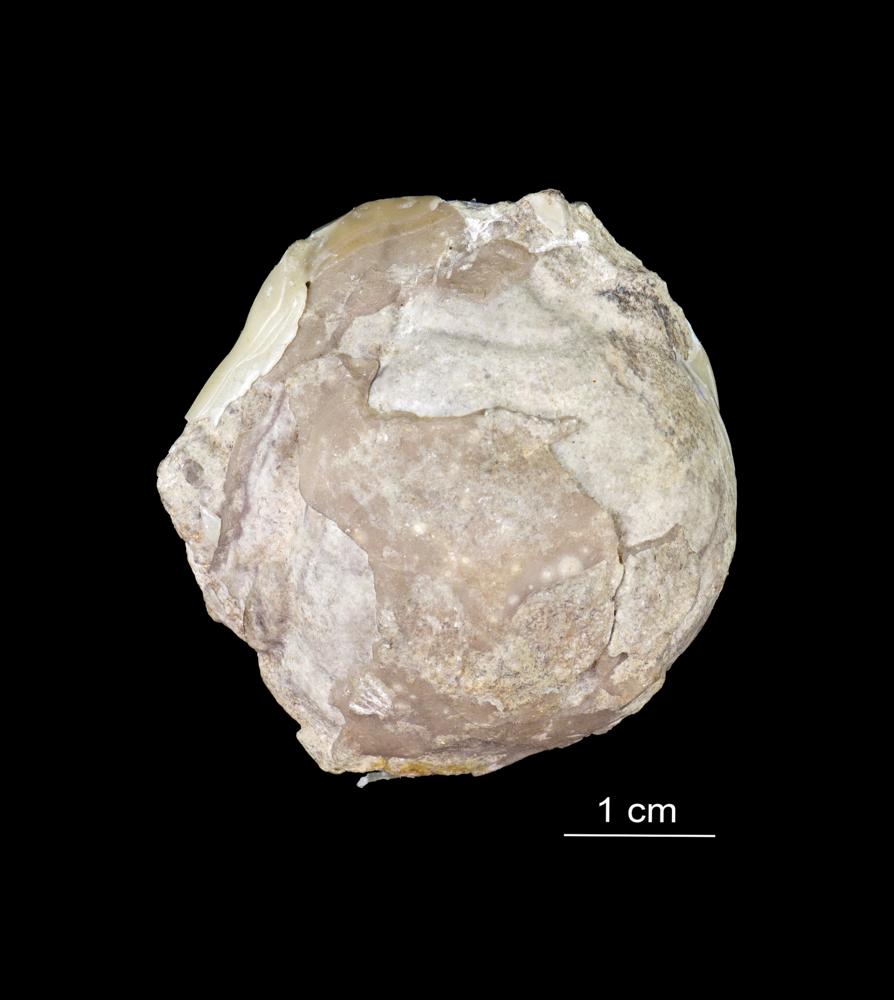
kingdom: Animalia
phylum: Arthropoda
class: Trilobita
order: Phacopida
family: Pliomeridae
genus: Pliomera
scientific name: Pliomera Asaphus fisheri
